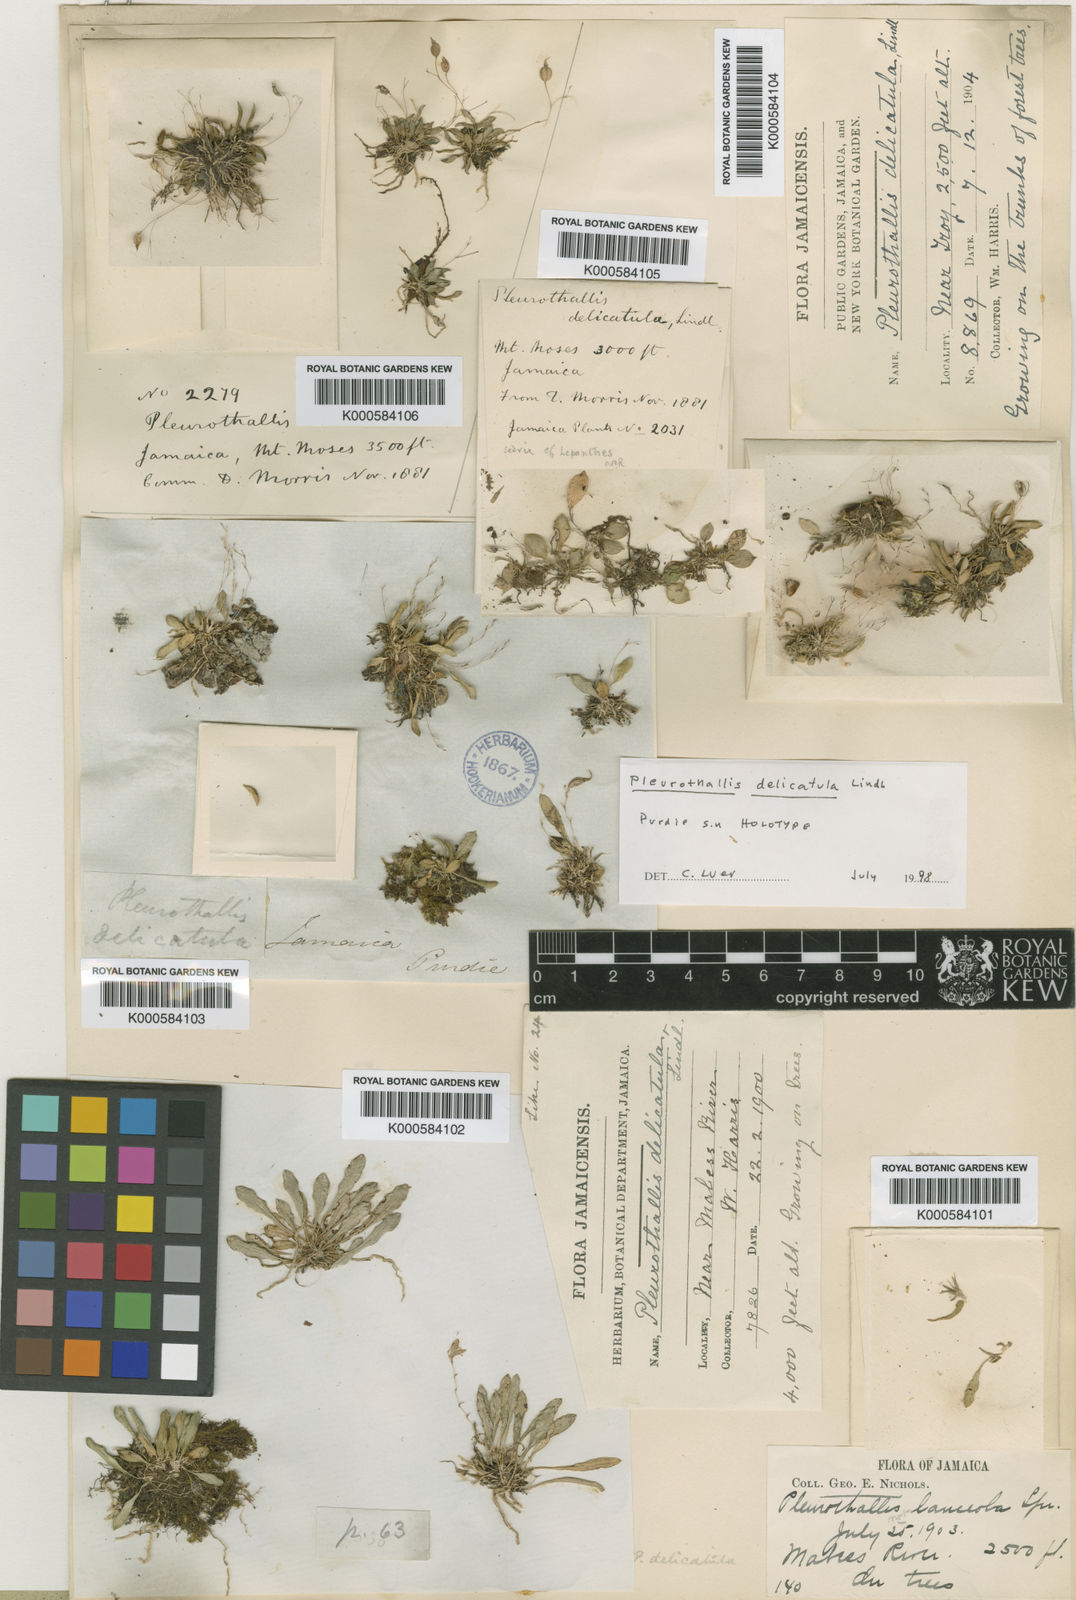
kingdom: Plantae
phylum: Tracheophyta
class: Liliopsida
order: Asparagales
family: Orchidaceae
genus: Muscarella
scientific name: Muscarella delicatula
